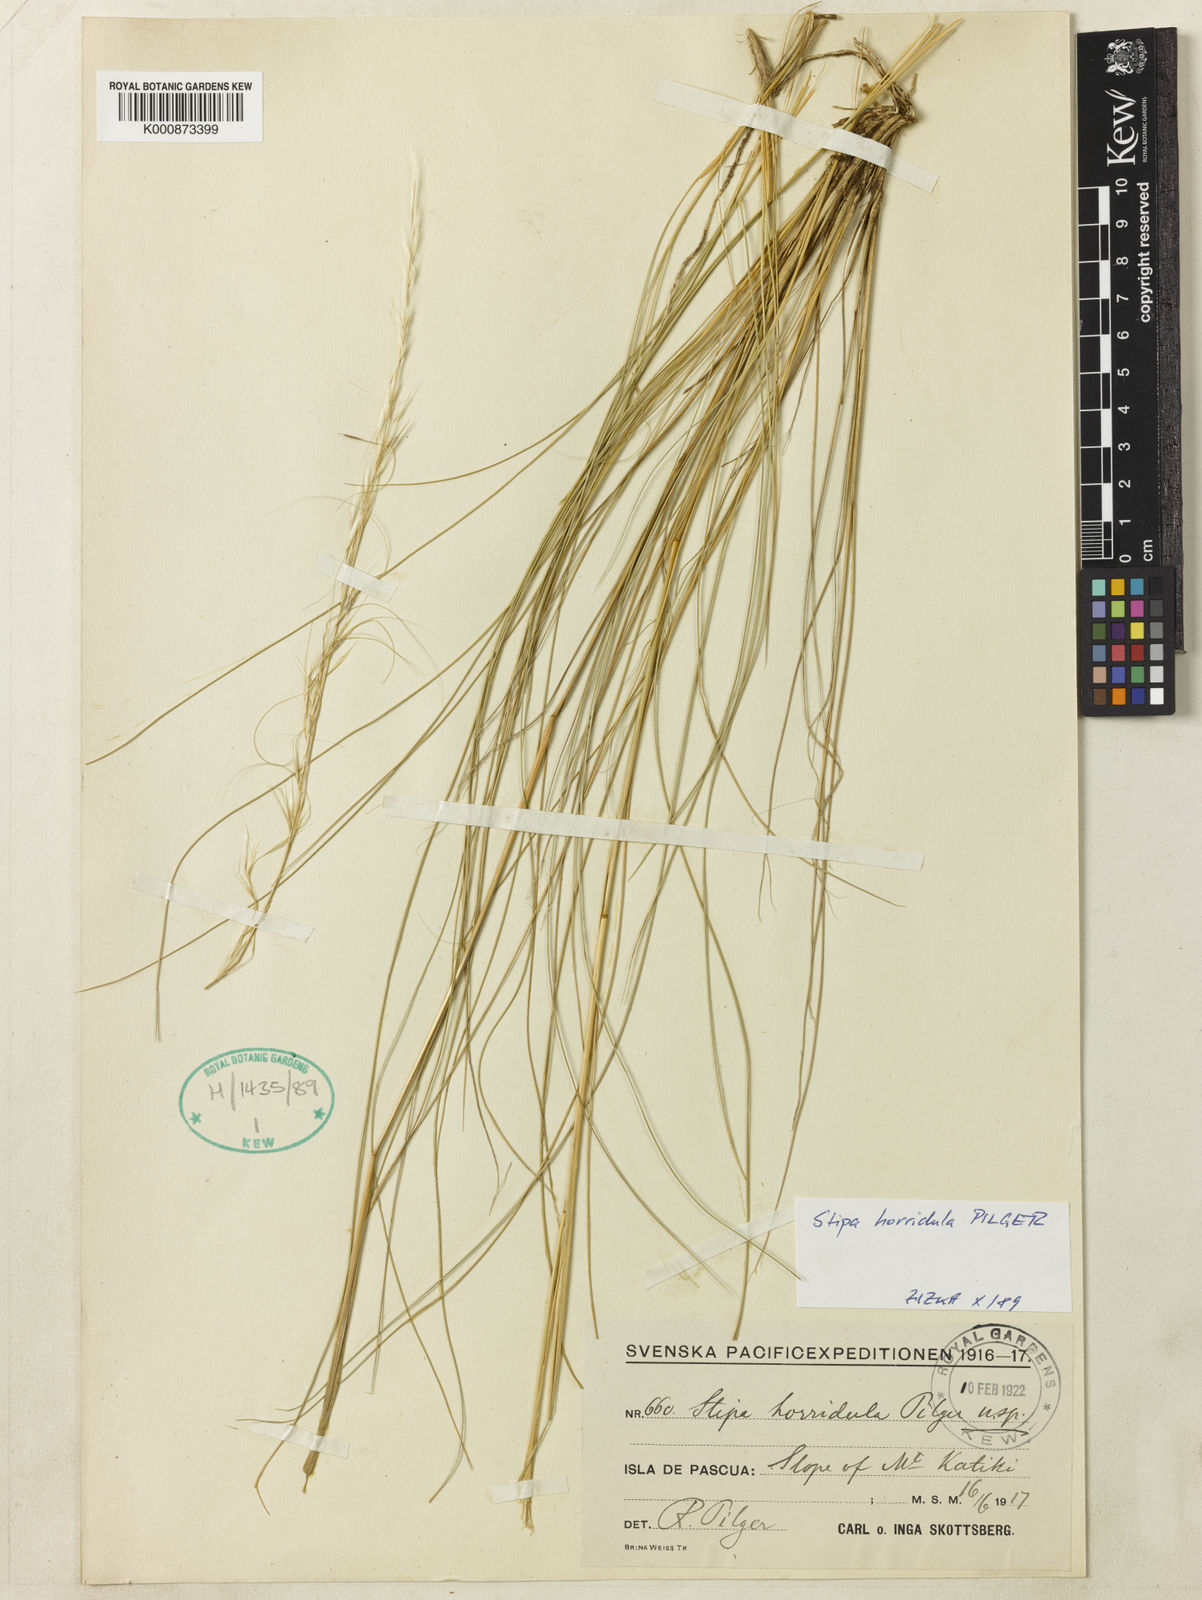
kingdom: Plantae
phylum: Tracheophyta
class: Liliopsida
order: Poales
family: Poaceae
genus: Austrostipa
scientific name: Austrostipa scabra
